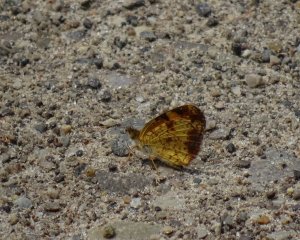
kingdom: Animalia
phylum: Arthropoda
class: Insecta
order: Lepidoptera
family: Nymphalidae
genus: Phyciodes
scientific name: Phyciodes tharos
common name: Pearl Crescent
